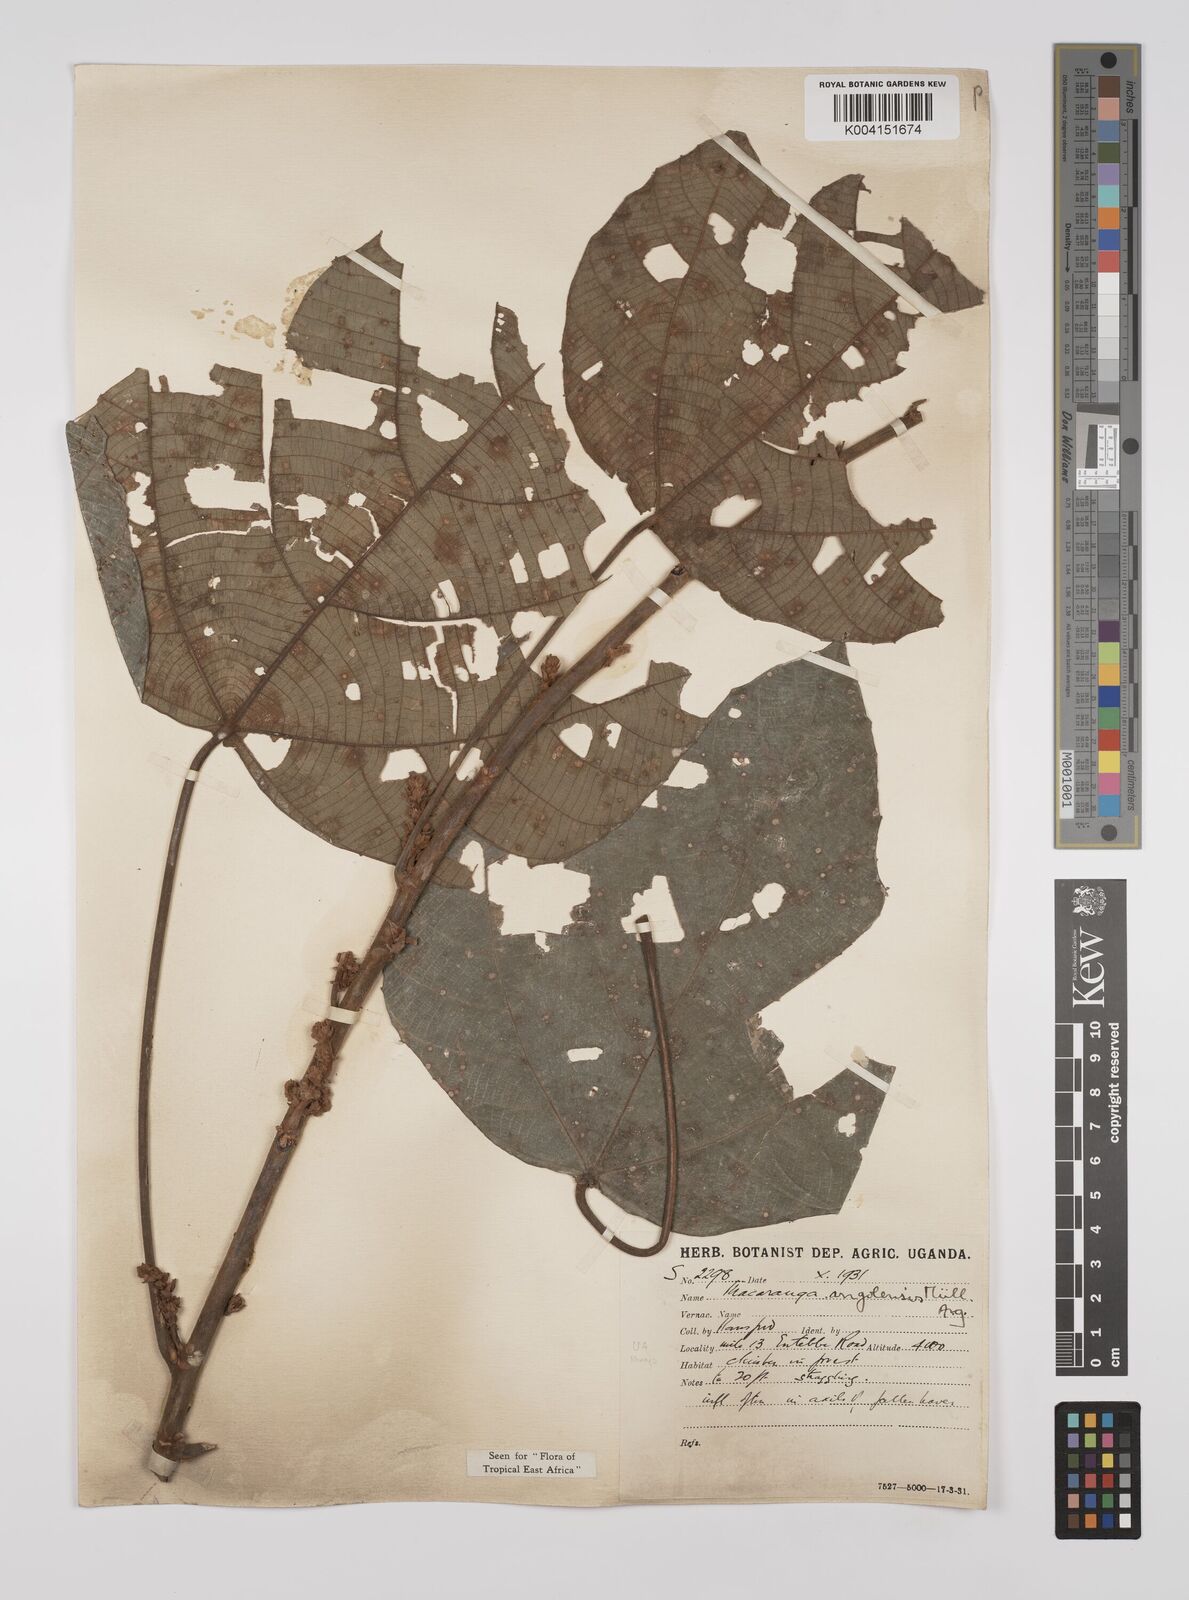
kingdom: Plantae
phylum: Tracheophyta
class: Magnoliopsida
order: Malpighiales
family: Euphorbiaceae
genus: Macaranga
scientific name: Macaranga angolensis
